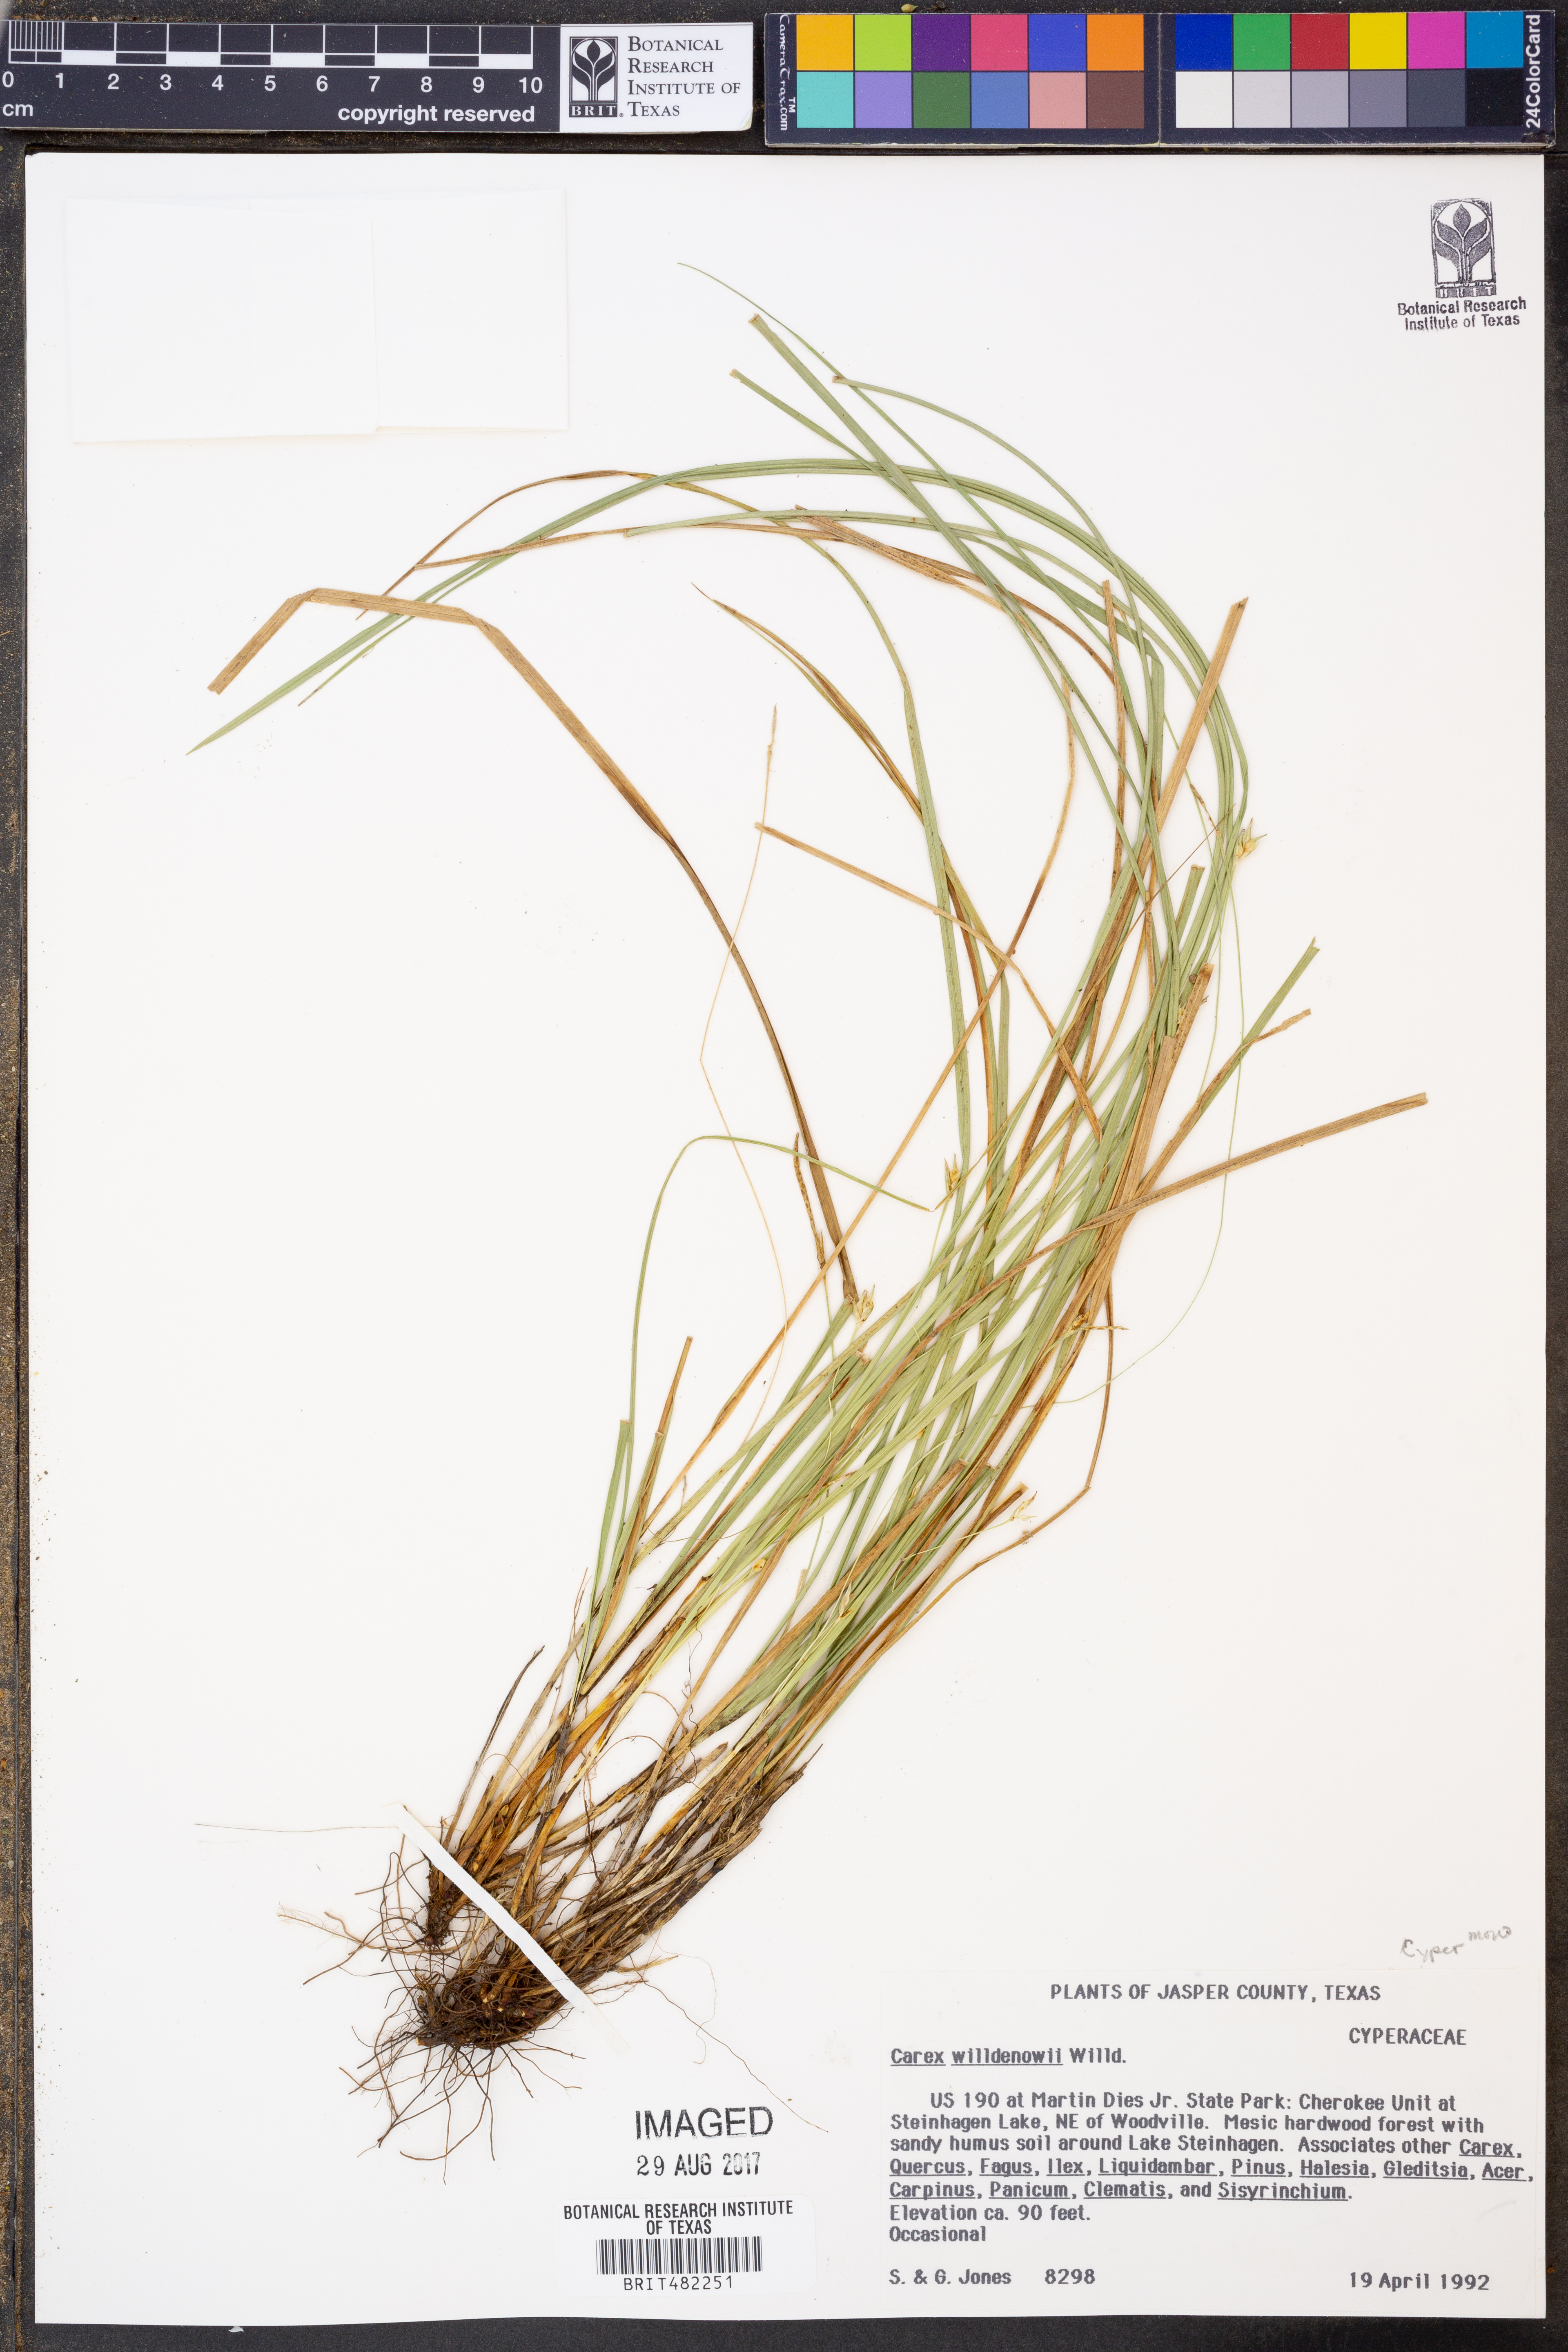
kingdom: Plantae
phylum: Tracheophyta
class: Liliopsida
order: Poales
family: Cyperaceae
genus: Carex
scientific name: Carex willdenowii
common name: Willdenow's sedge
